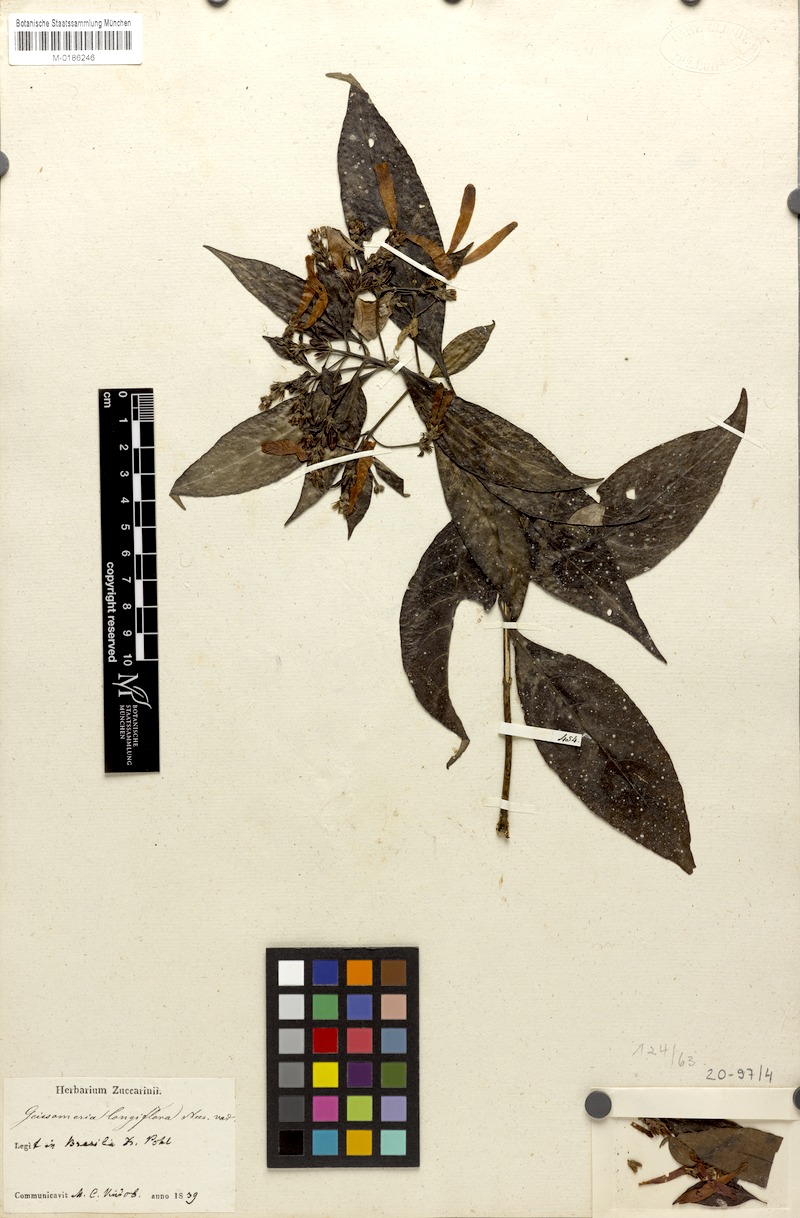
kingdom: Plantae
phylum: Tracheophyta
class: Magnoliopsida
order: Lamiales
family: Acanthaceae
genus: Aphelandra
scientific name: Aphelandra longiflora
